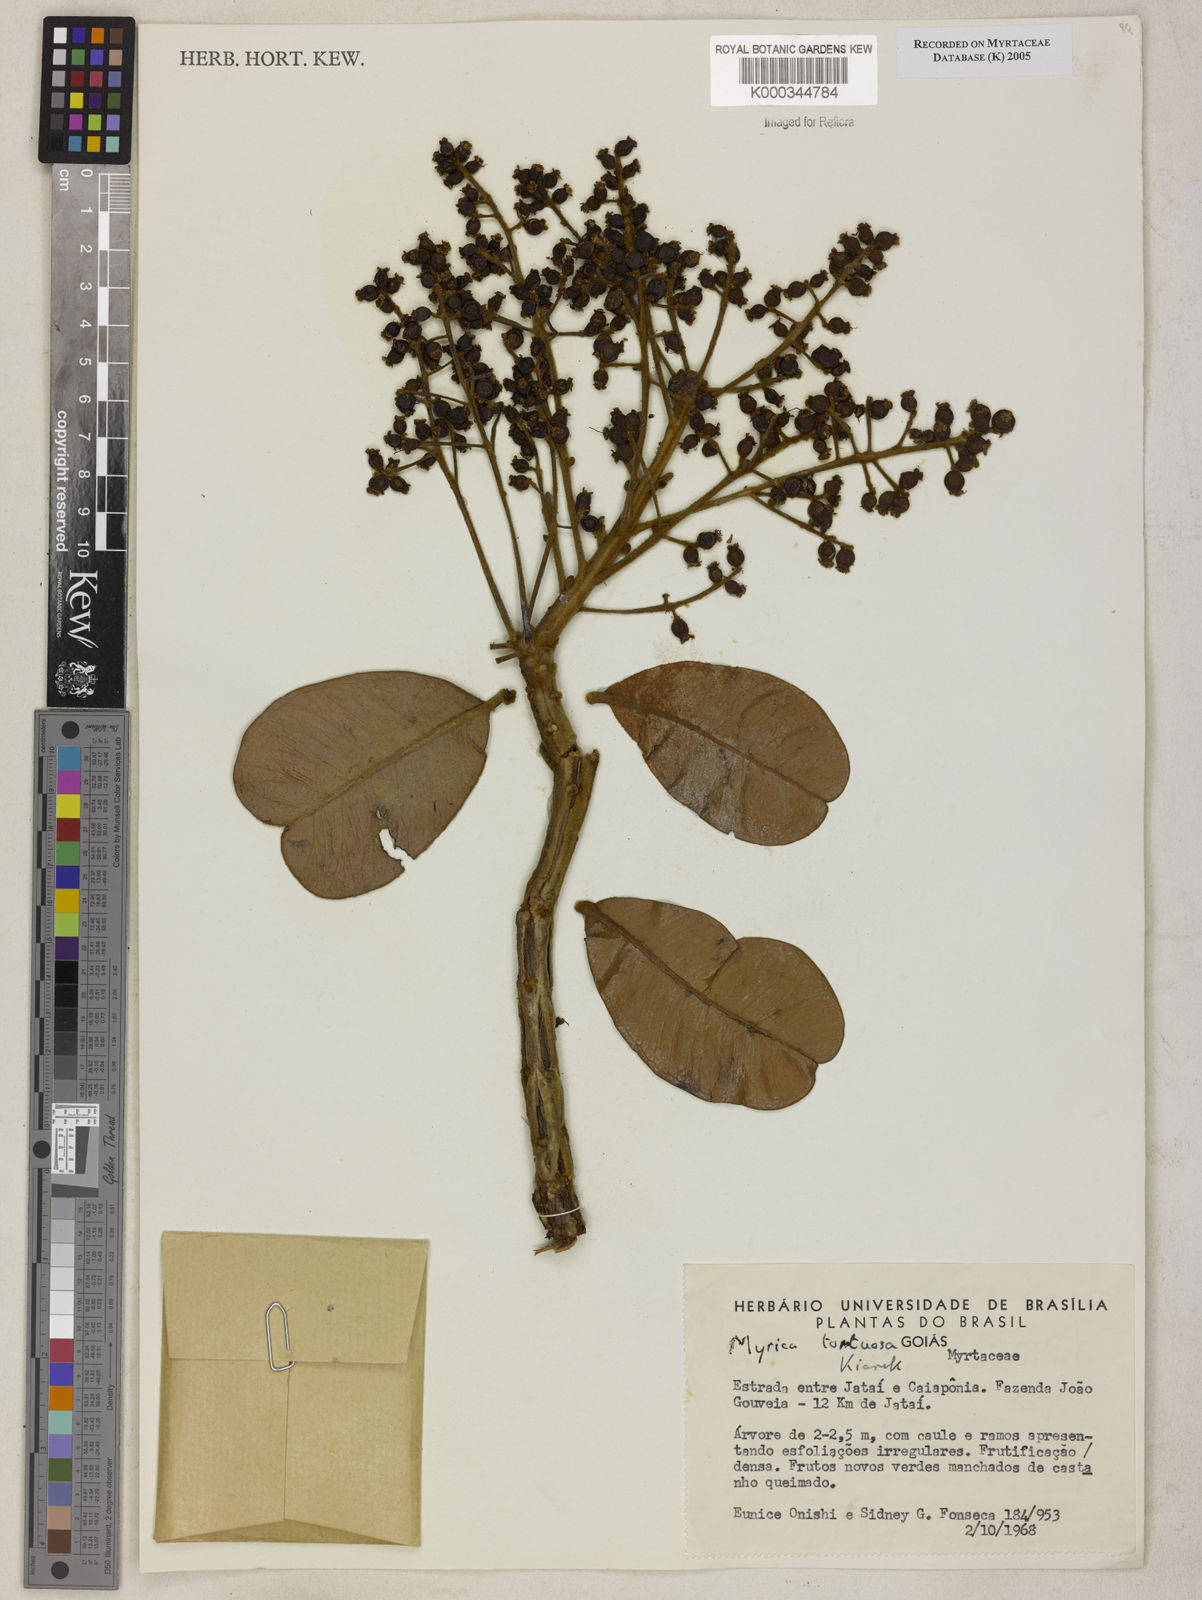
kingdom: Plantae
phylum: Tracheophyta
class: Magnoliopsida
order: Myrtales
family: Myrtaceae
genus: Myrcia
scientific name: Myrcia guianensis
